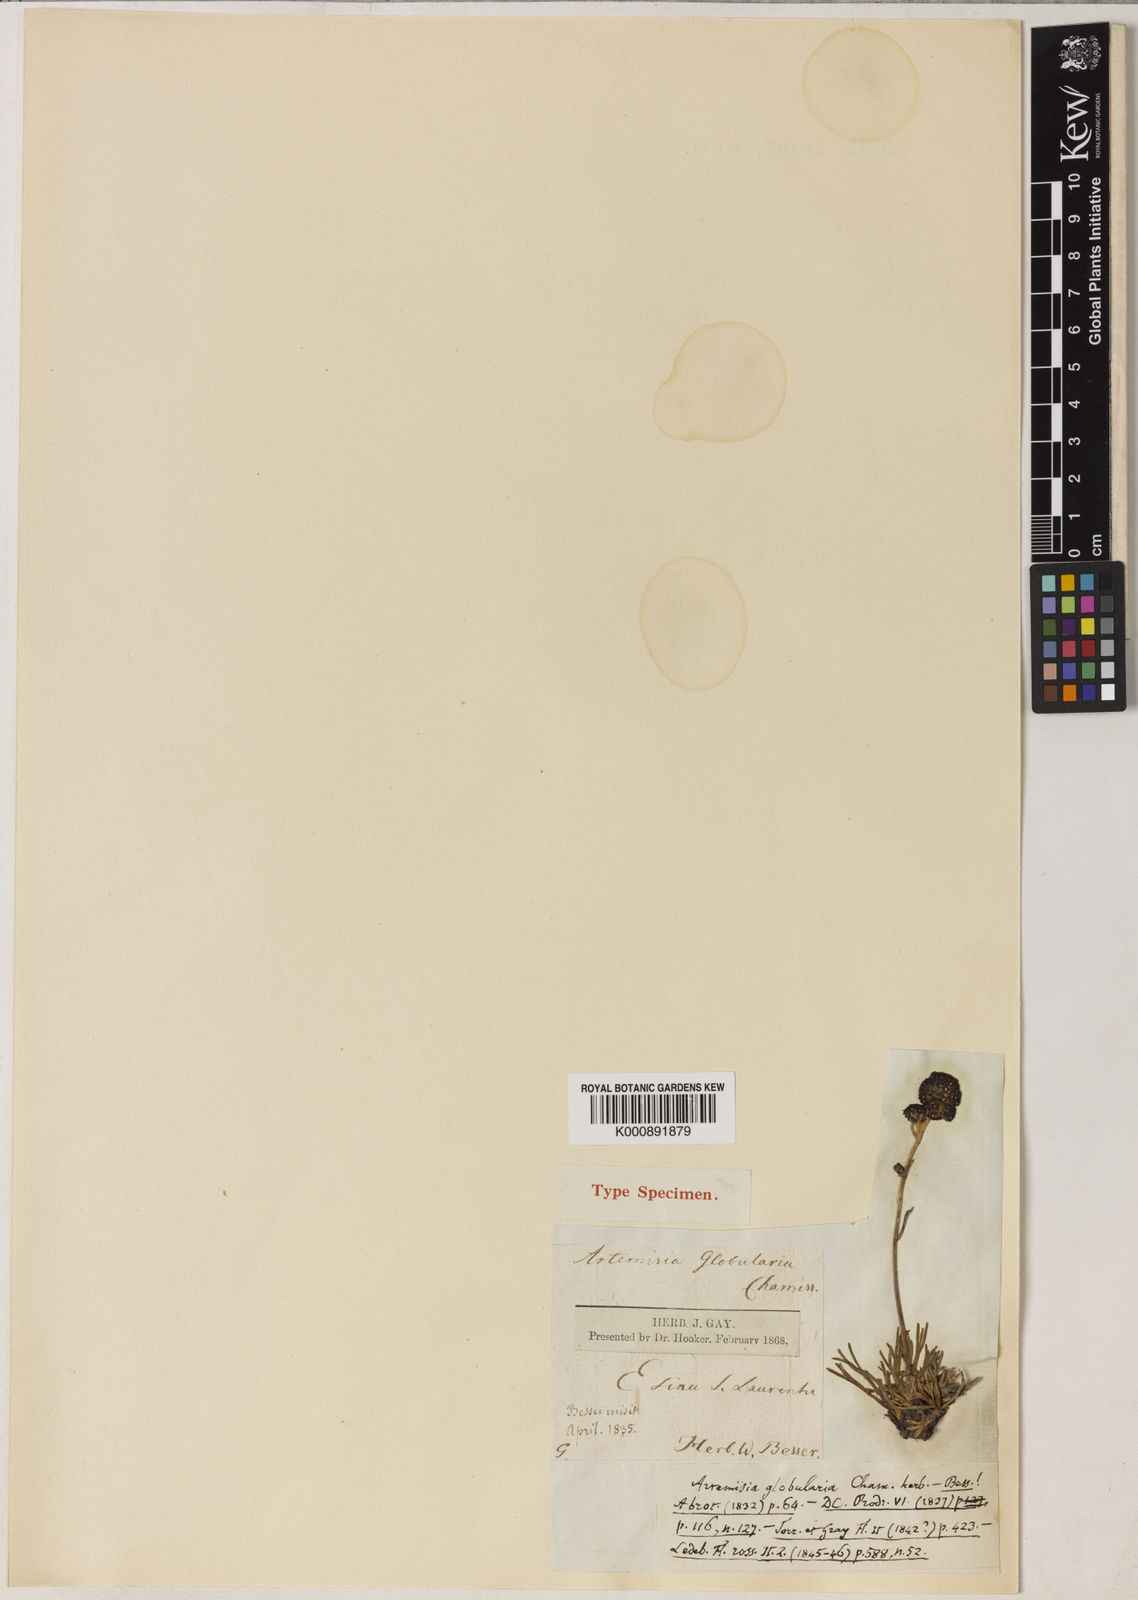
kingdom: Plantae
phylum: Tracheophyta
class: Magnoliopsida
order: Asterales
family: Asteraceae
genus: Artemisia
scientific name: Artemisia globularia
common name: Purple wormwood
